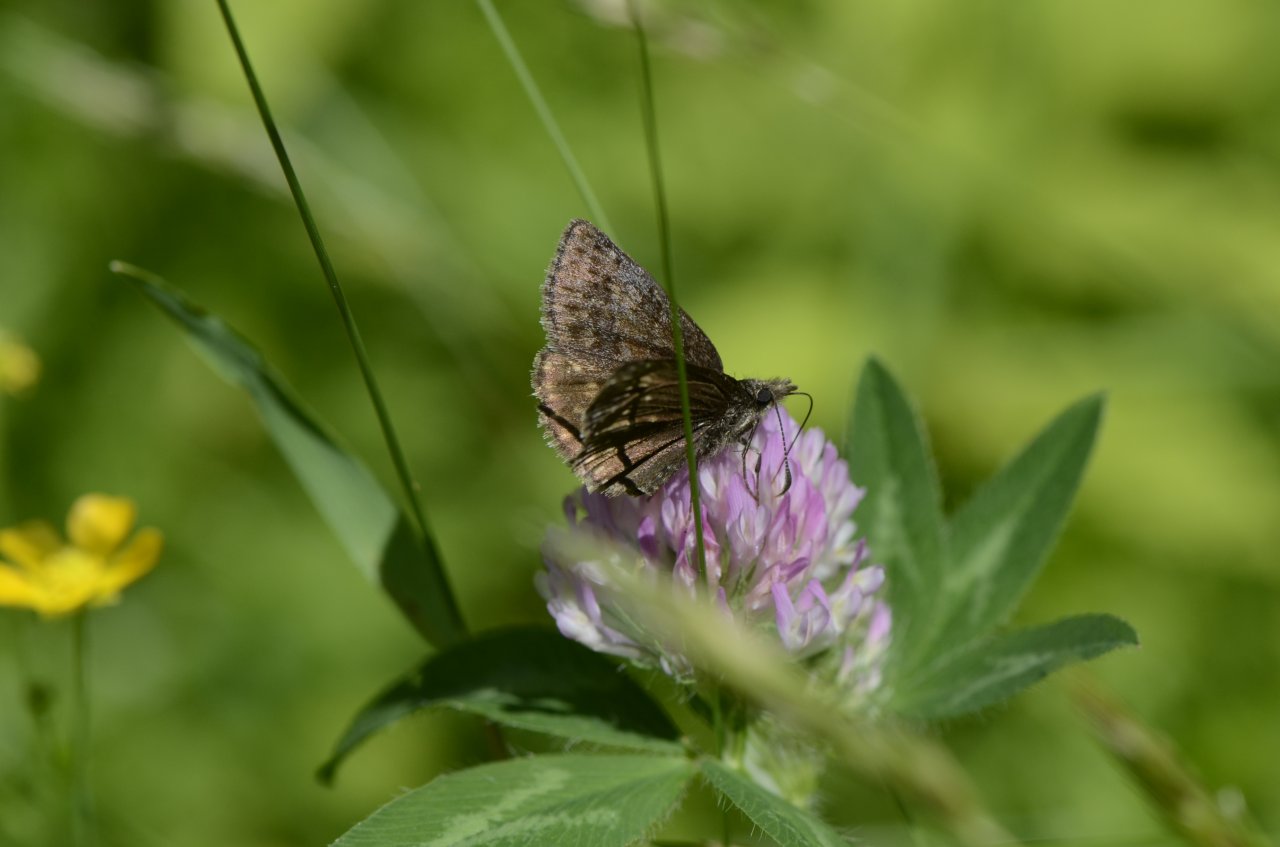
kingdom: Animalia
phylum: Arthropoda
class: Insecta
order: Lepidoptera
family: Hesperiidae
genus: Erynnis
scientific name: Erynnis icelus
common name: Dreamy Duskywing
